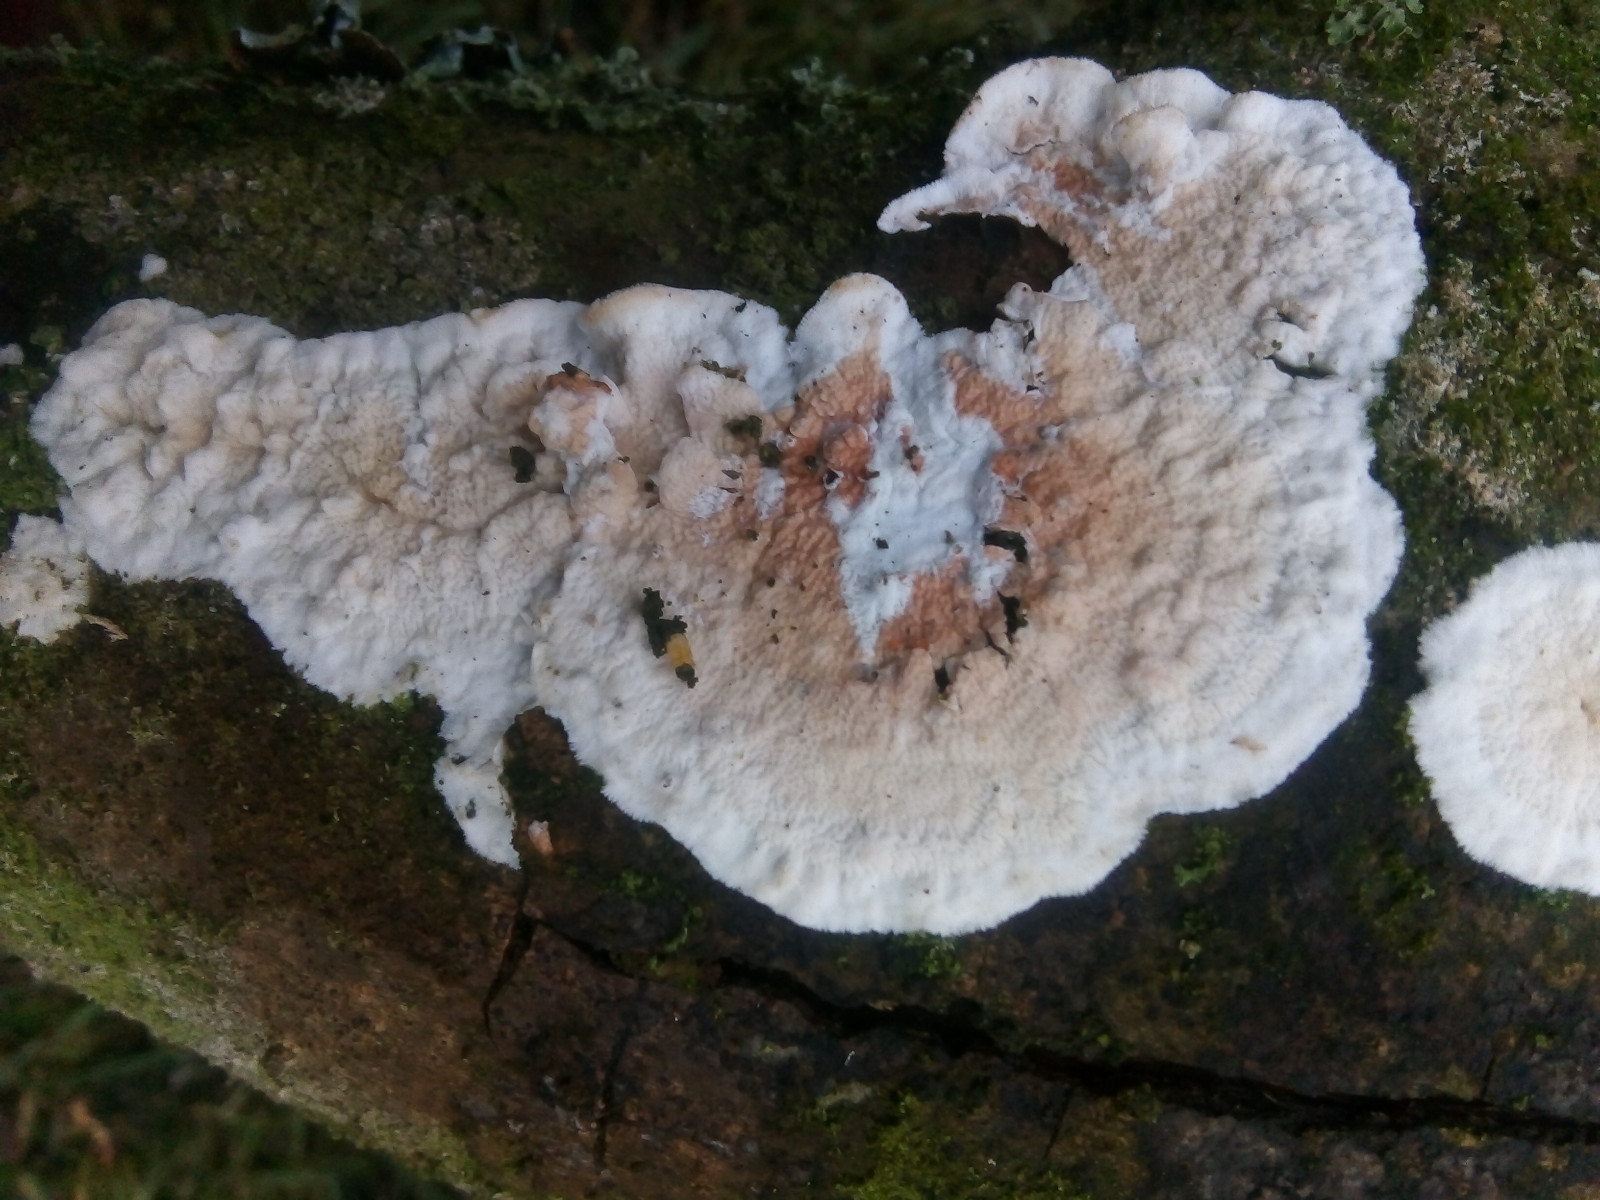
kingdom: Fungi
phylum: Basidiomycota
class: Agaricomycetes
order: Polyporales
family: Irpicaceae
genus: Byssomerulius
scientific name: Byssomerulius corium
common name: læder-åresvamp
